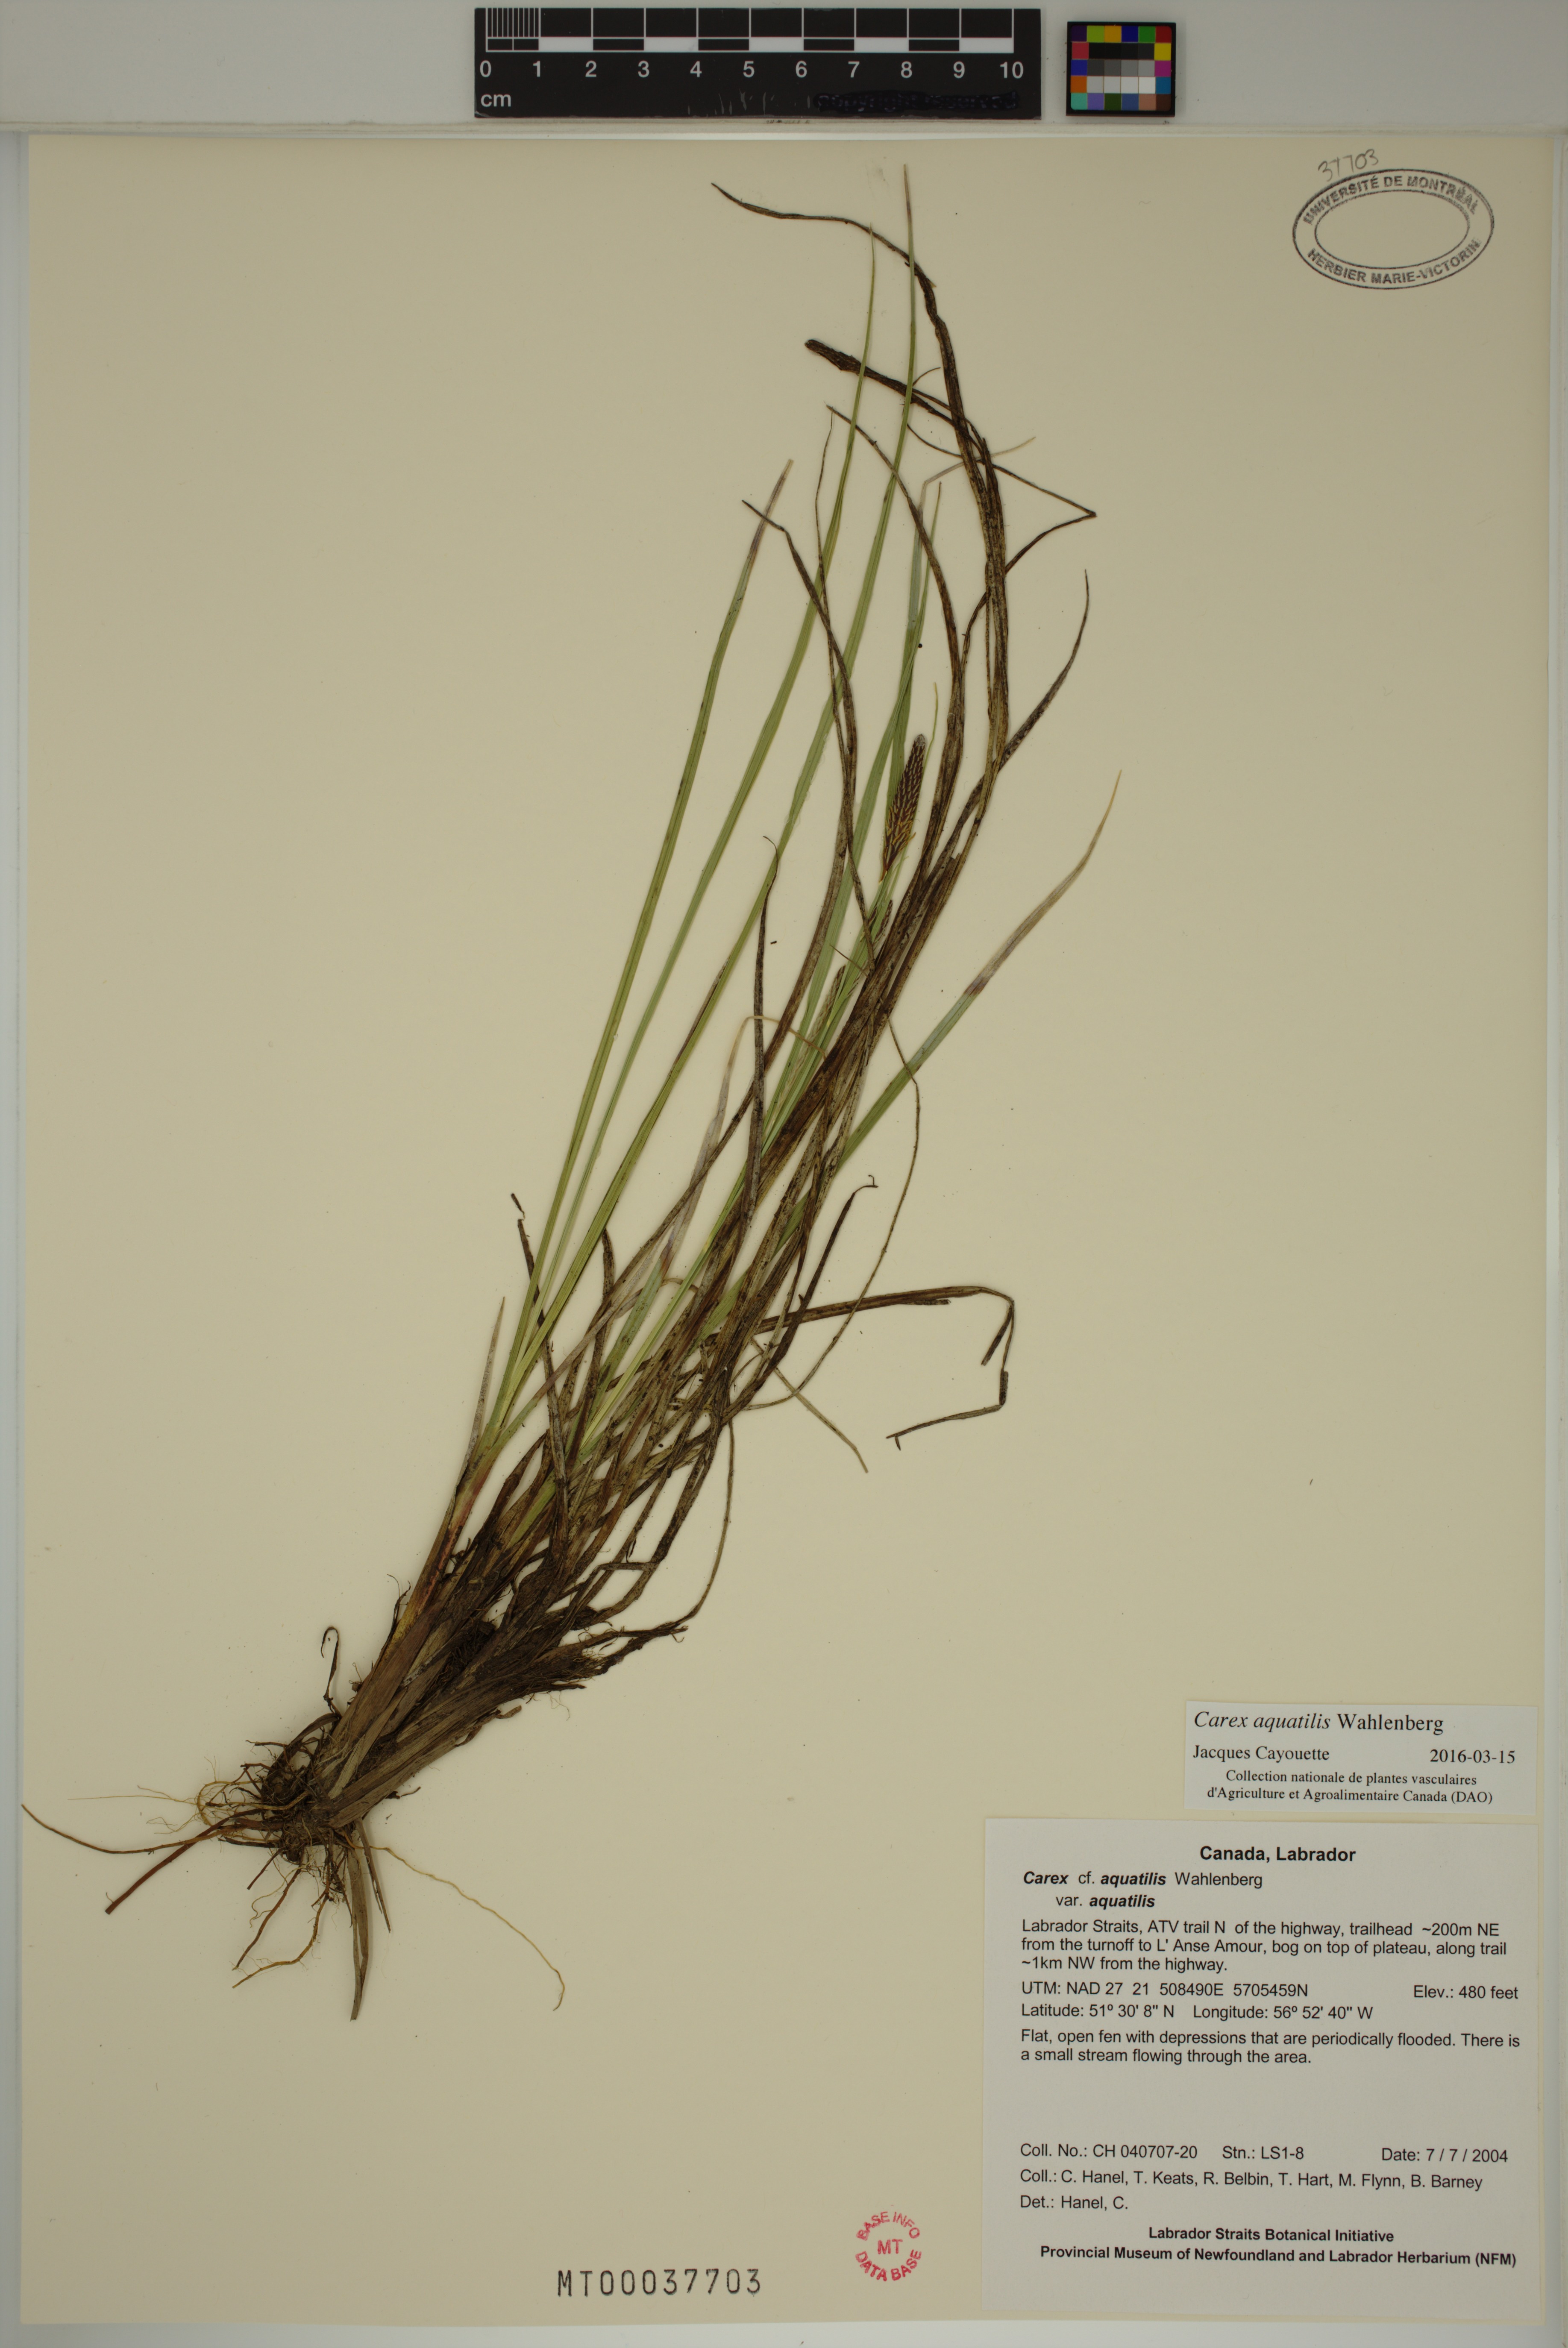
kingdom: Plantae
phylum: Tracheophyta
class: Liliopsida
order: Poales
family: Cyperaceae
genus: Carex
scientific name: Carex aquatilis
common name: Water sedge
